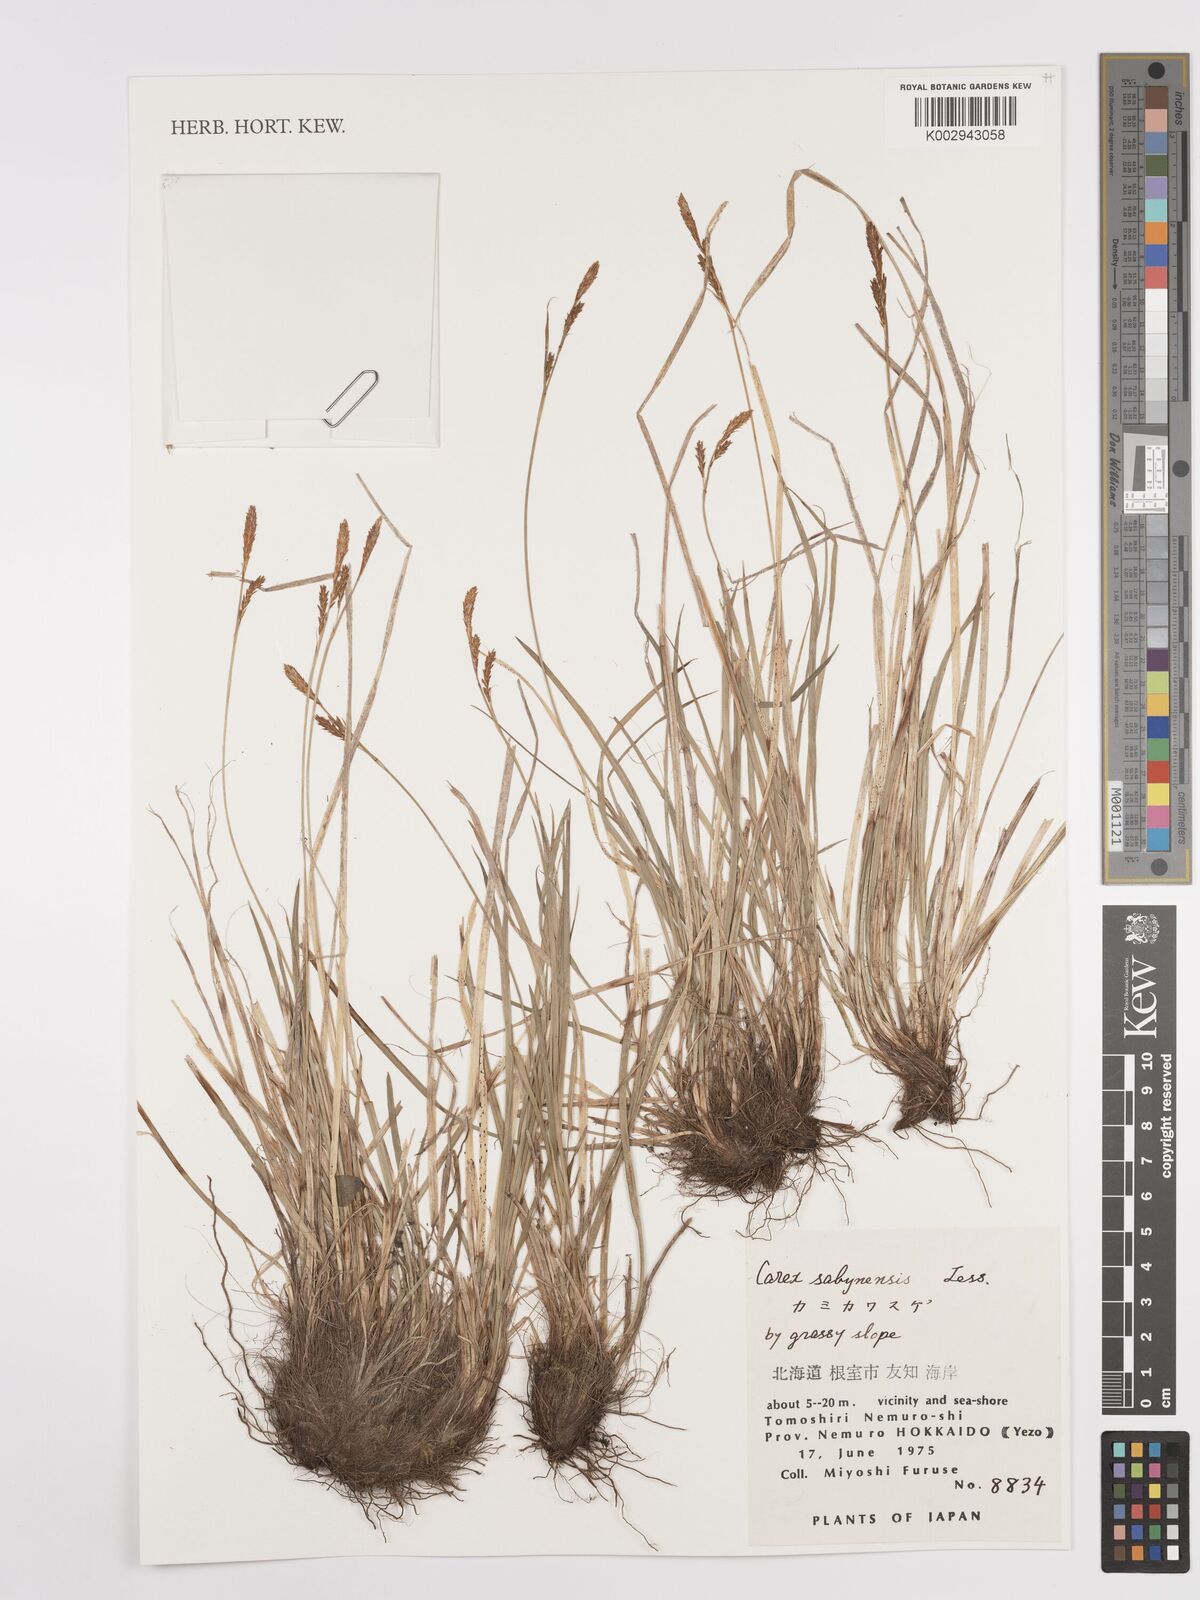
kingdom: Plantae
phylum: Tracheophyta
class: Liliopsida
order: Poales
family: Cyperaceae
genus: Carex
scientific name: Carex umbrosa
